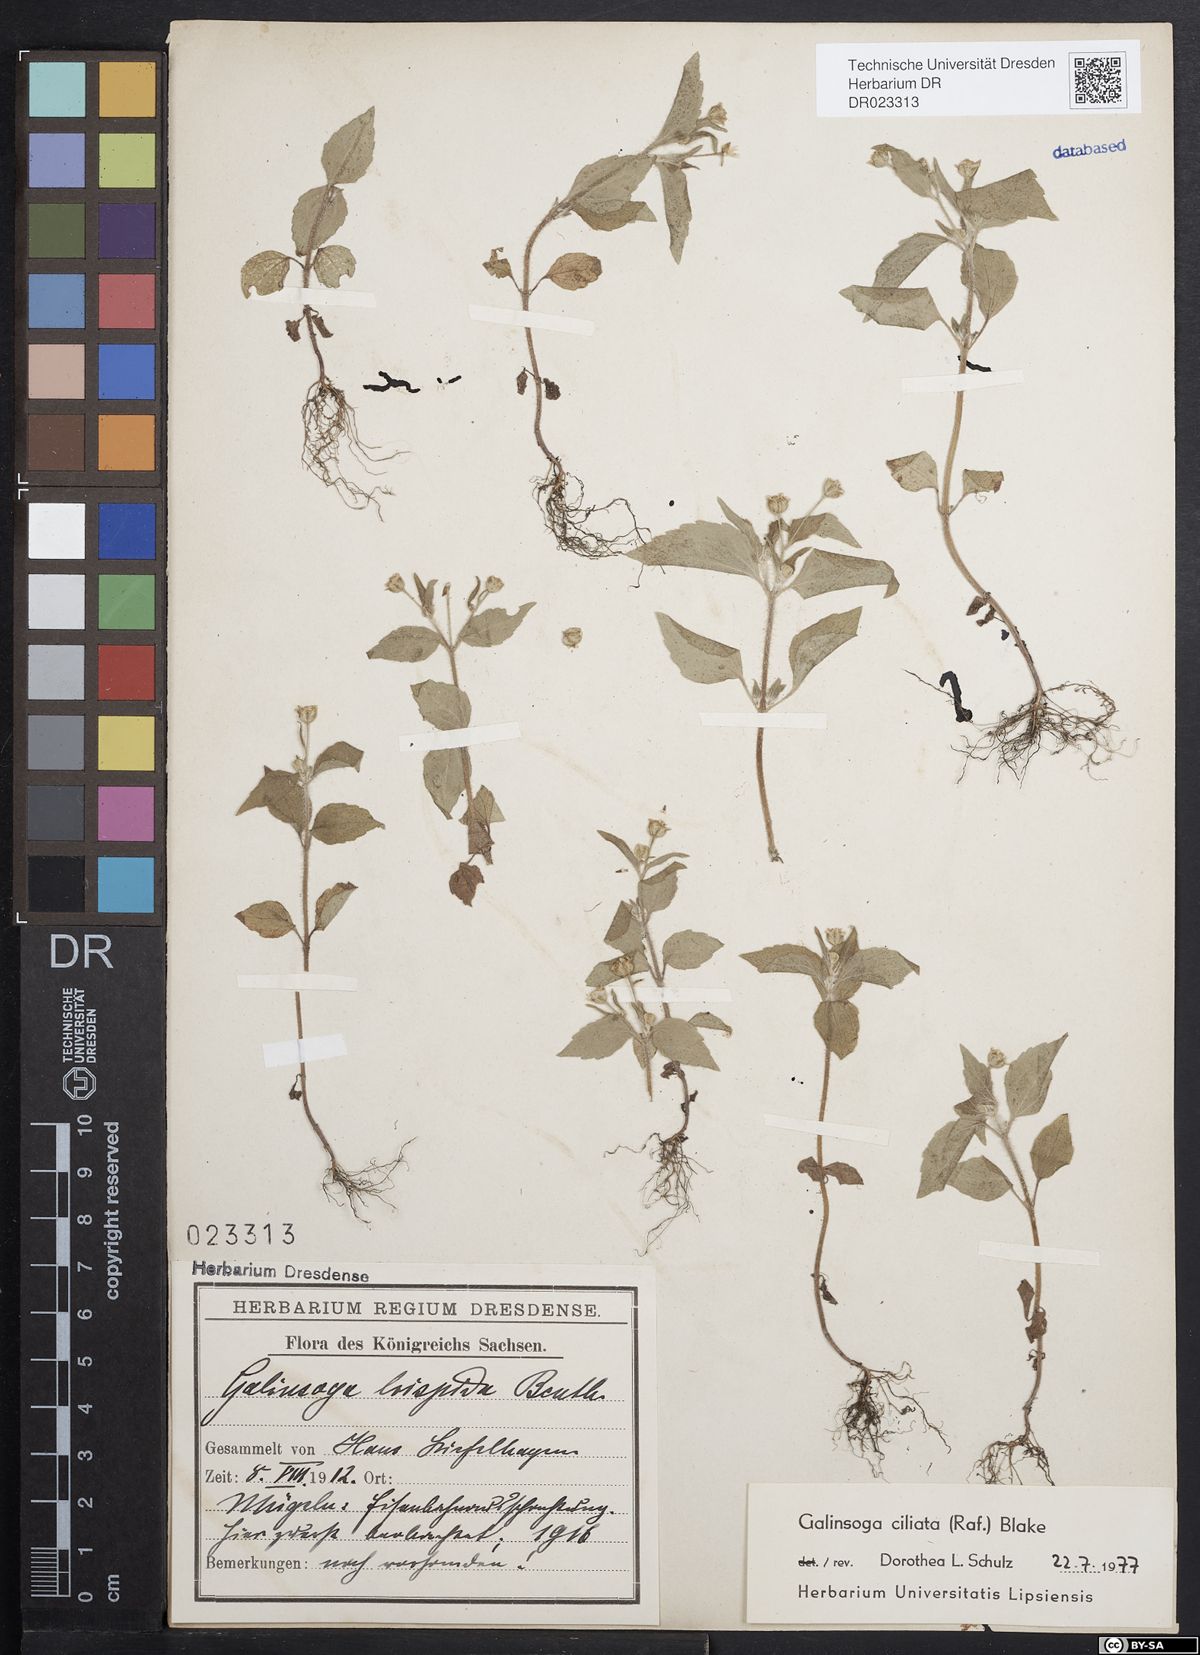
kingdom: Plantae
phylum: Tracheophyta
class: Magnoliopsida
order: Asterales
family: Asteraceae
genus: Galinsoga
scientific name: Galinsoga quadriradiata
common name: Shaggy soldier
